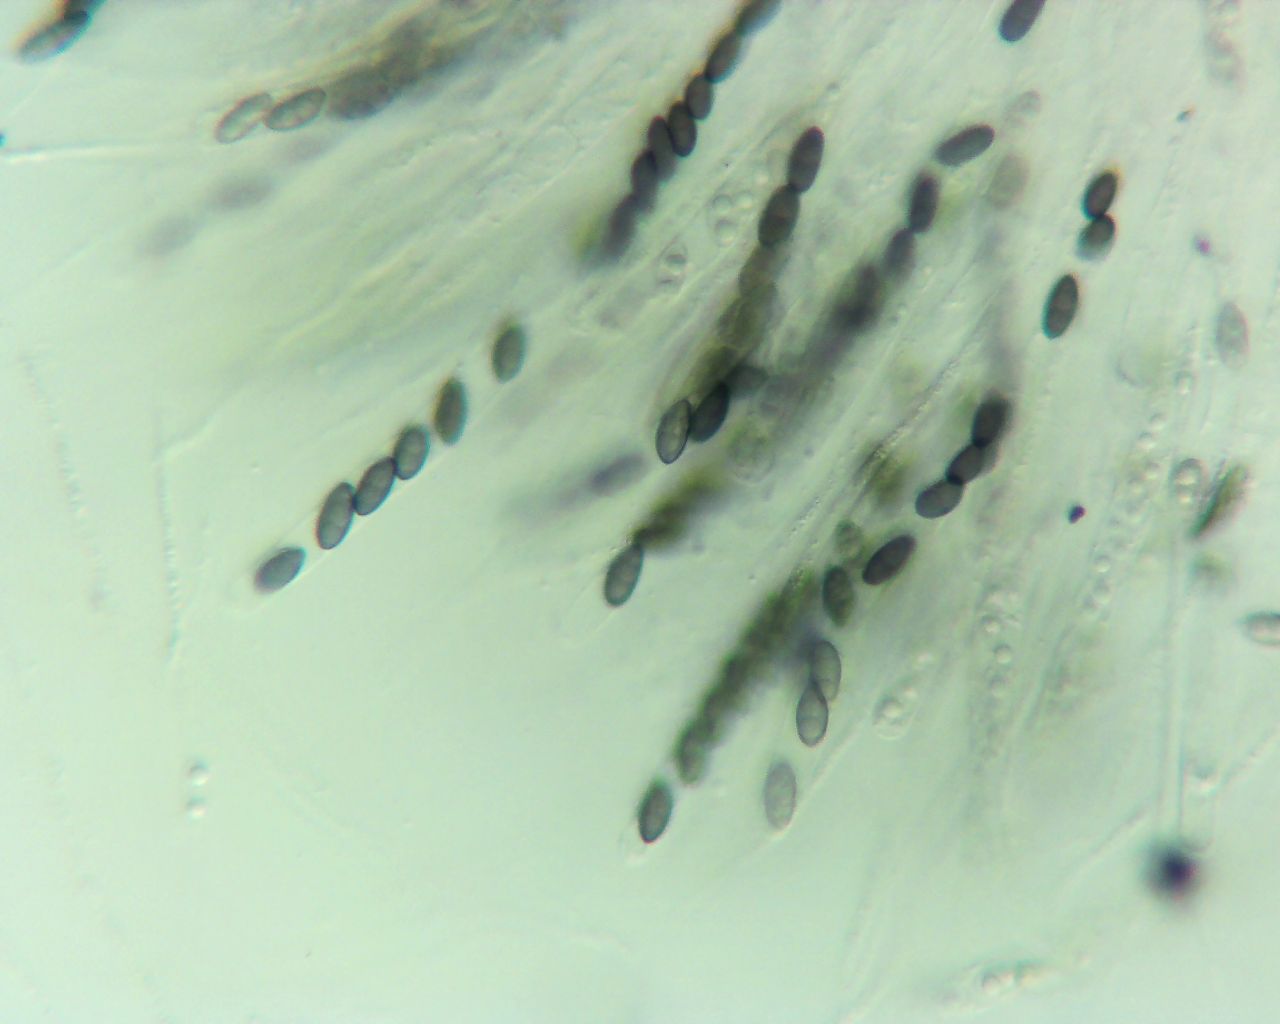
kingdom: Fungi
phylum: Ascomycota
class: Sordariomycetes
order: Xylariales
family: Xylariaceae
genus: Nemania
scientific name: Nemania serpens
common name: almindelig kuldyne
